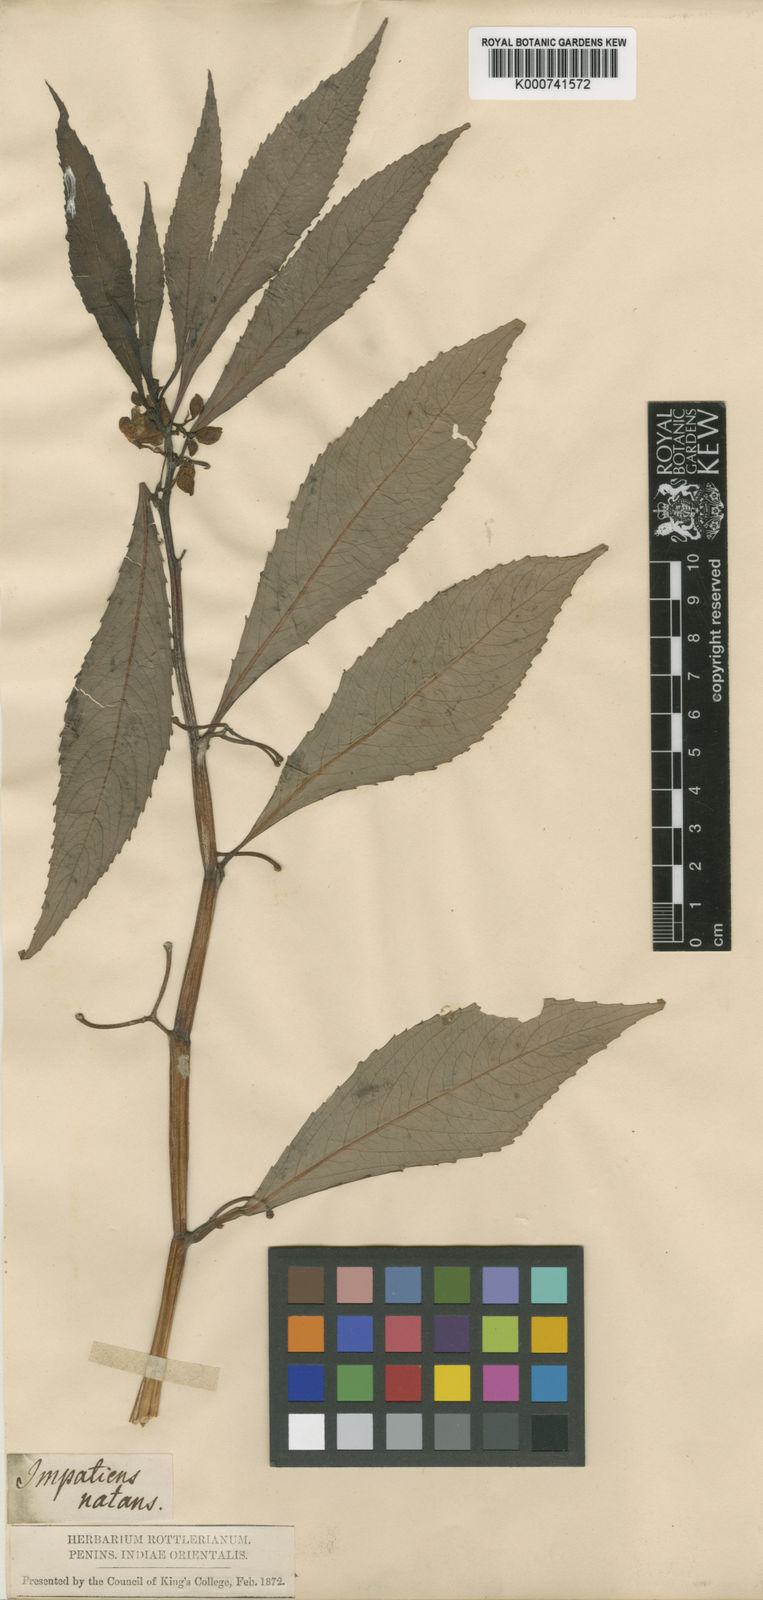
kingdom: Plantae
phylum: Tracheophyta
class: Magnoliopsida
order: Ericales
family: Balsaminaceae
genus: Hydrocera
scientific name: Hydrocera triflora
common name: Marsh henna
